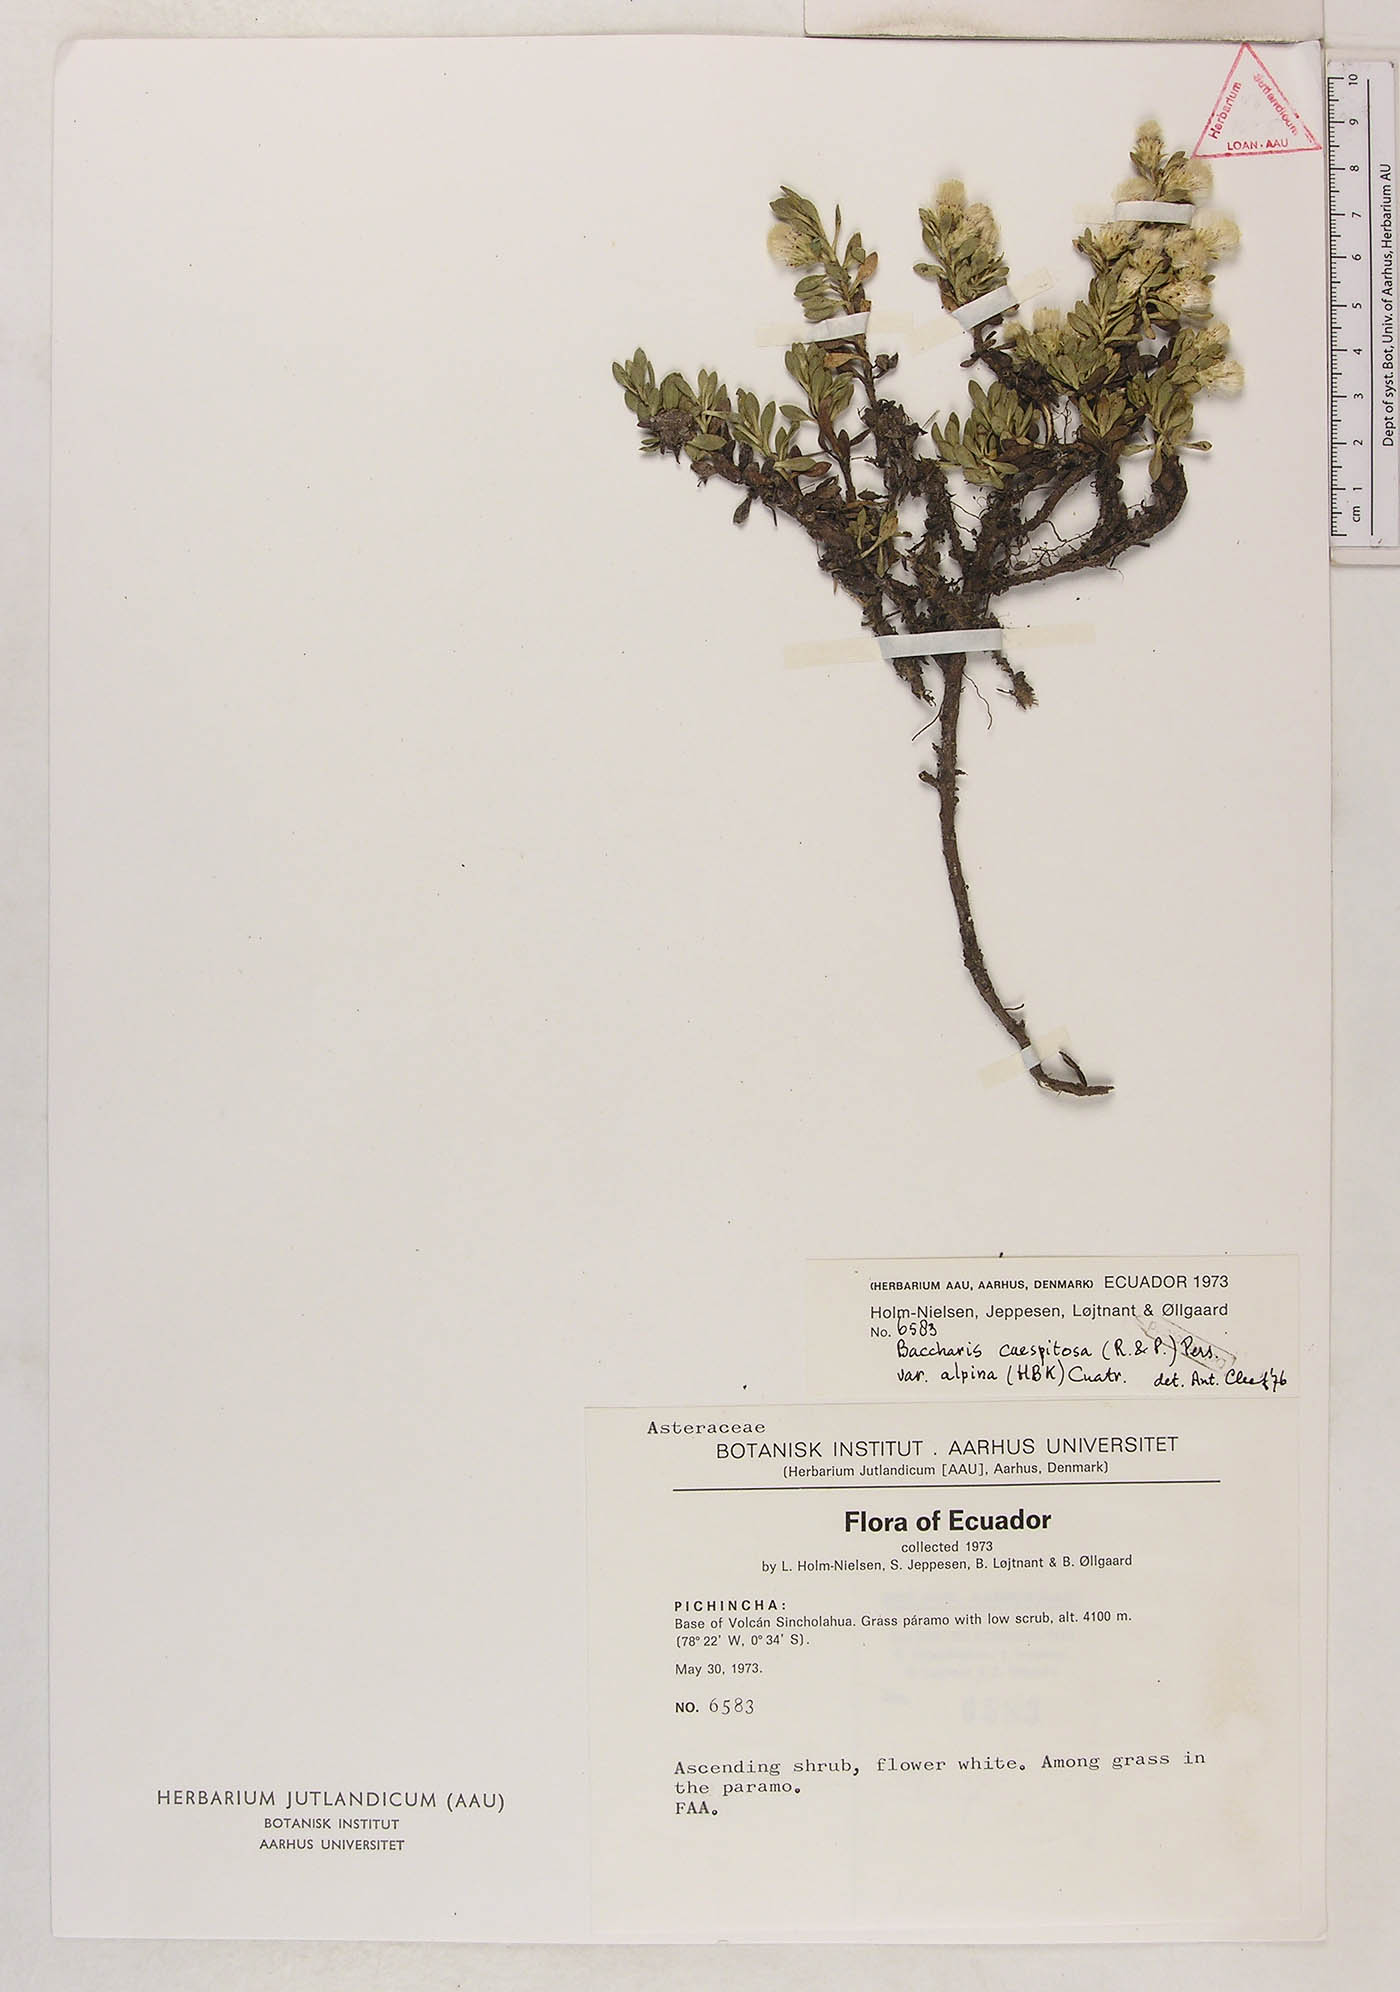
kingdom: Plantae
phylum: Tracheophyta
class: Magnoliopsida
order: Asterales
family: Asteraceae
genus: Baccharis
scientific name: Baccharis alpina
